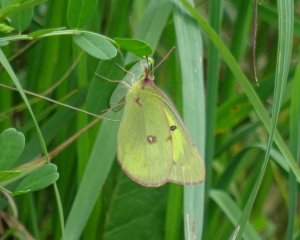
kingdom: Animalia
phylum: Arthropoda
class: Insecta
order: Lepidoptera
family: Pieridae
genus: Colias
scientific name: Colias philodice
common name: Clouded Sulphur
